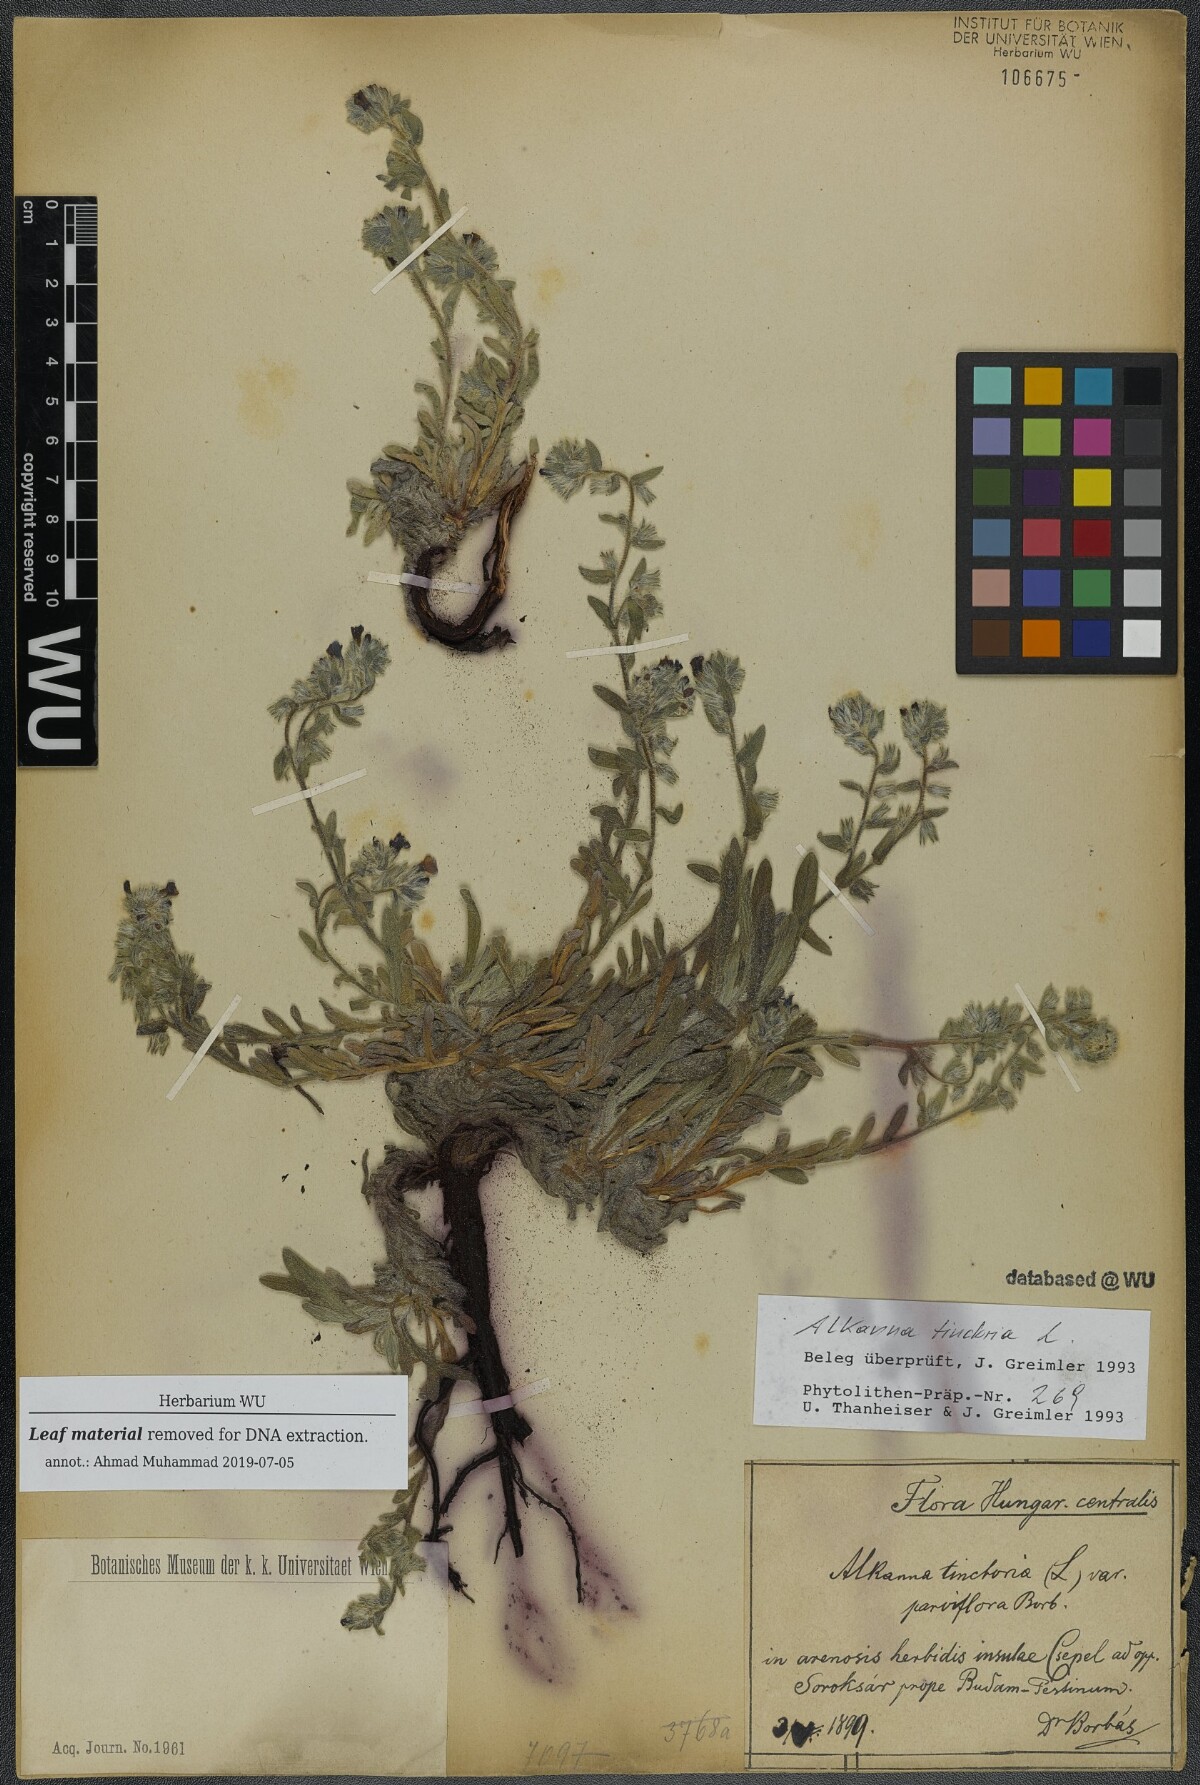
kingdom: Plantae
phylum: Tracheophyta
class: Magnoliopsida
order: Boraginales
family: Boraginaceae
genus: Alkanna
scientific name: Alkanna tinctoria
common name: Dyer's-alkanet
